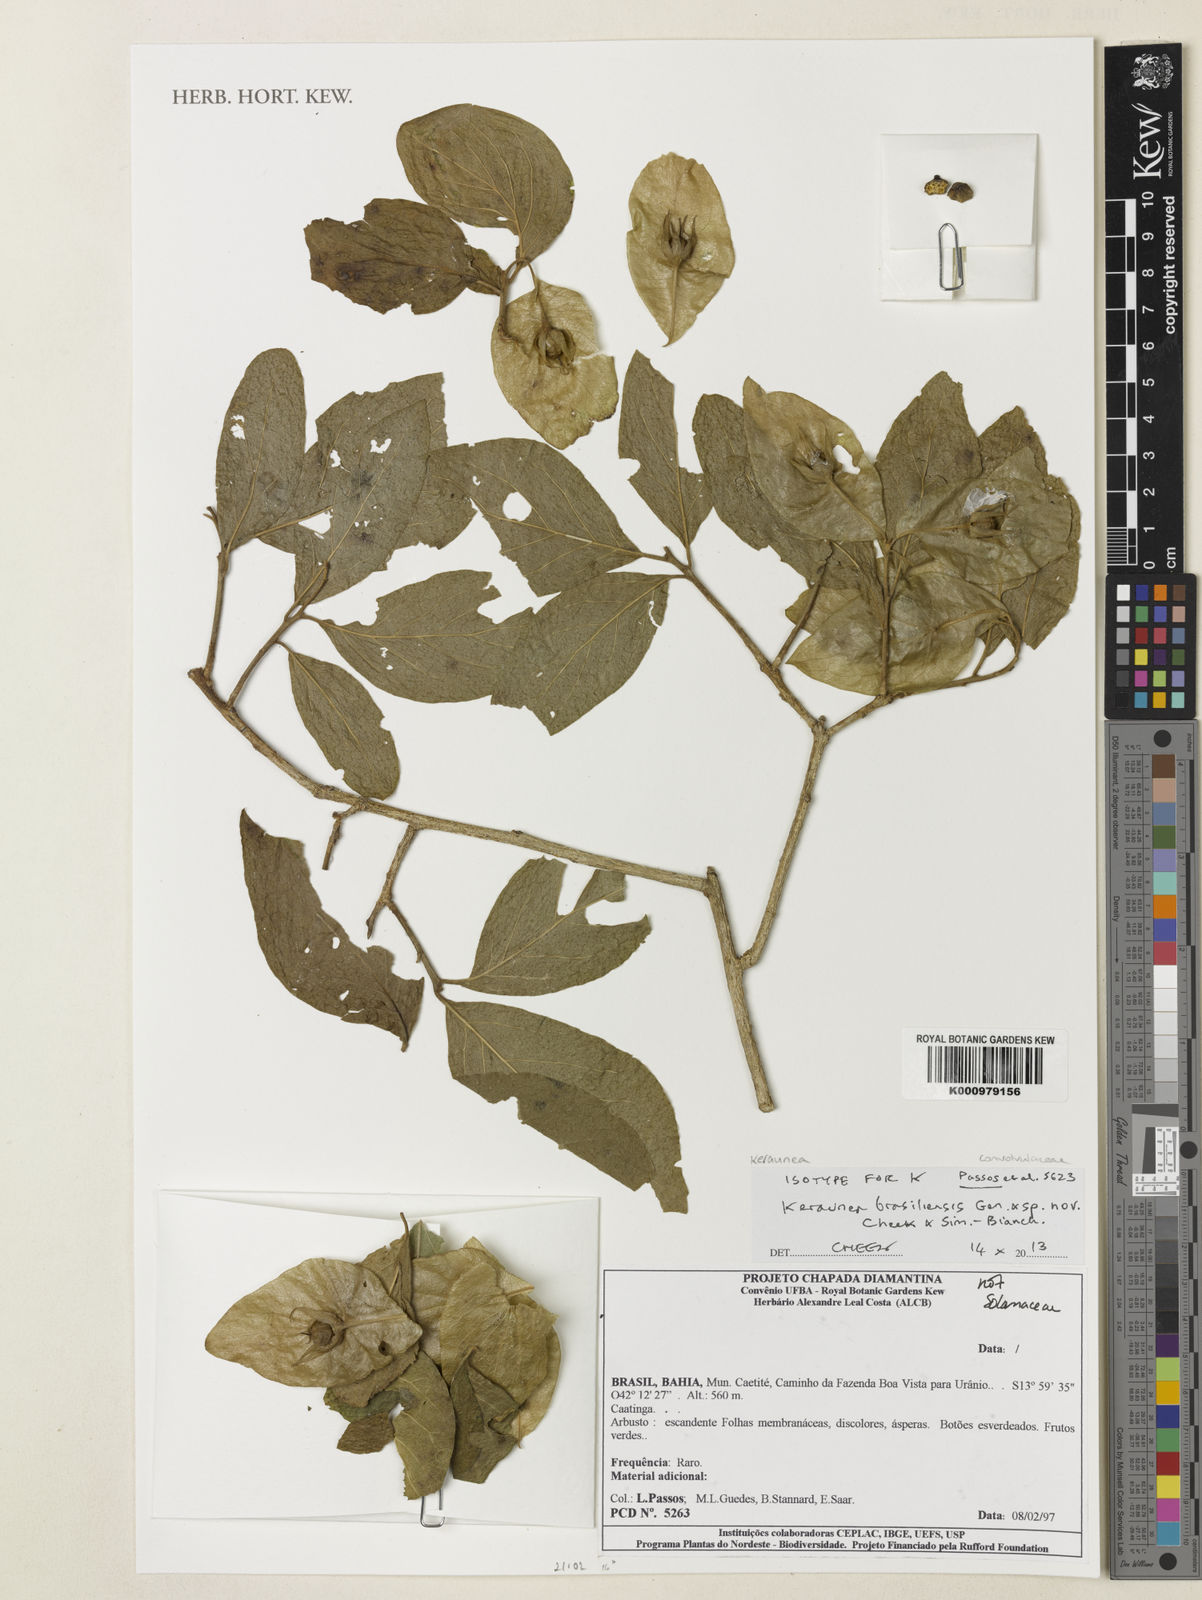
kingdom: Plantae
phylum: Tracheophyta
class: Magnoliopsida
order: Solanales
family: Convolvulaceae
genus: Keraunea
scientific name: Keraunea brasiliensis
